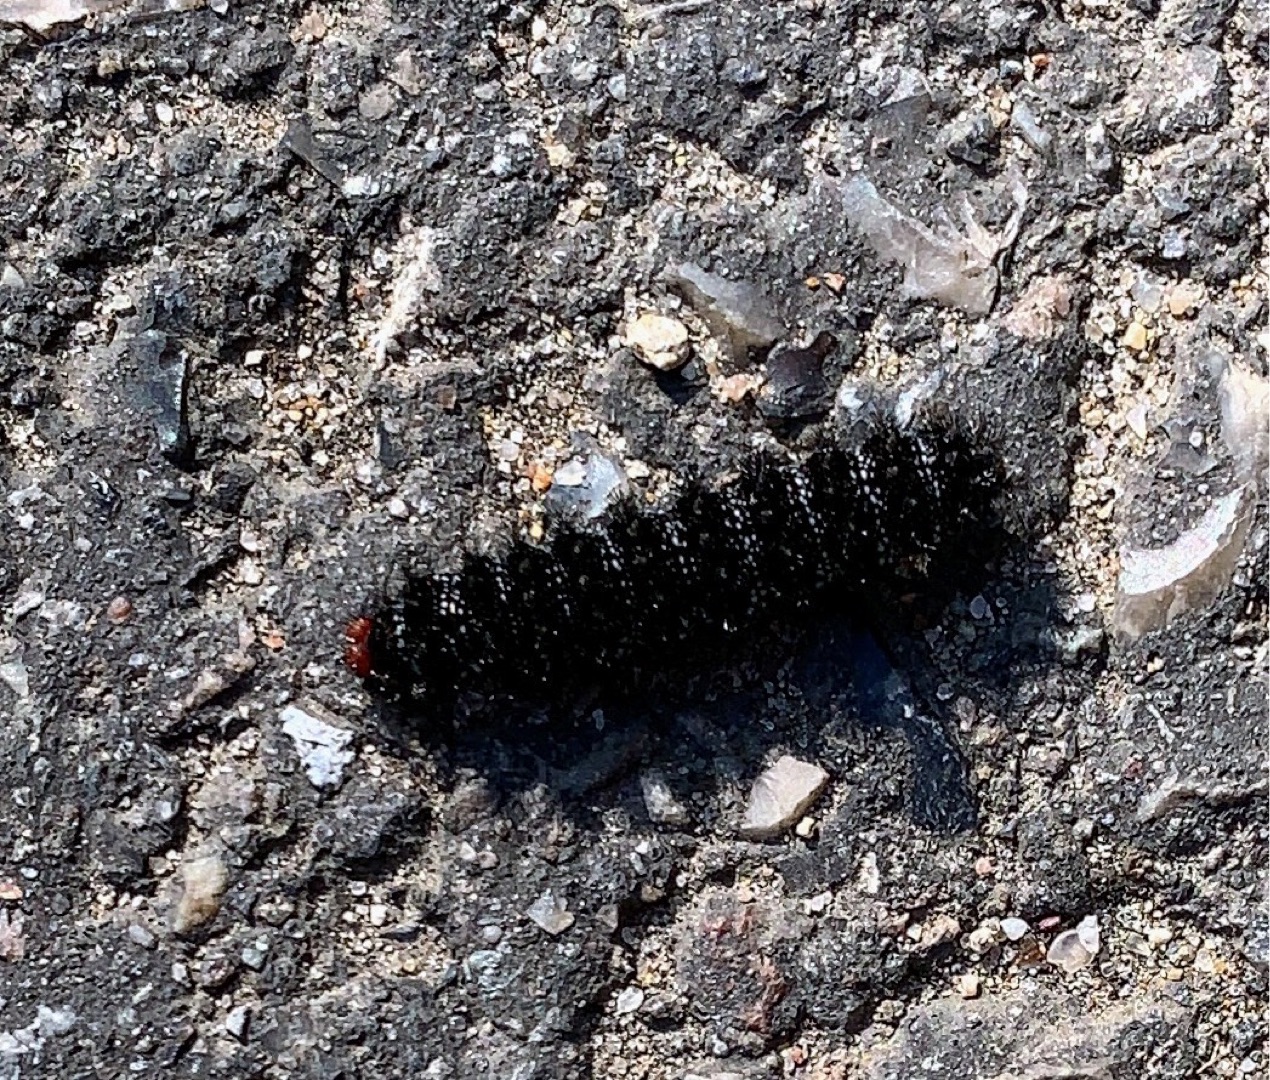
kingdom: Animalia
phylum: Arthropoda
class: Insecta
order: Lepidoptera
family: Nymphalidae
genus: Melitaea
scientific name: Melitaea cinxia
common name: Okkergul pletvinge
